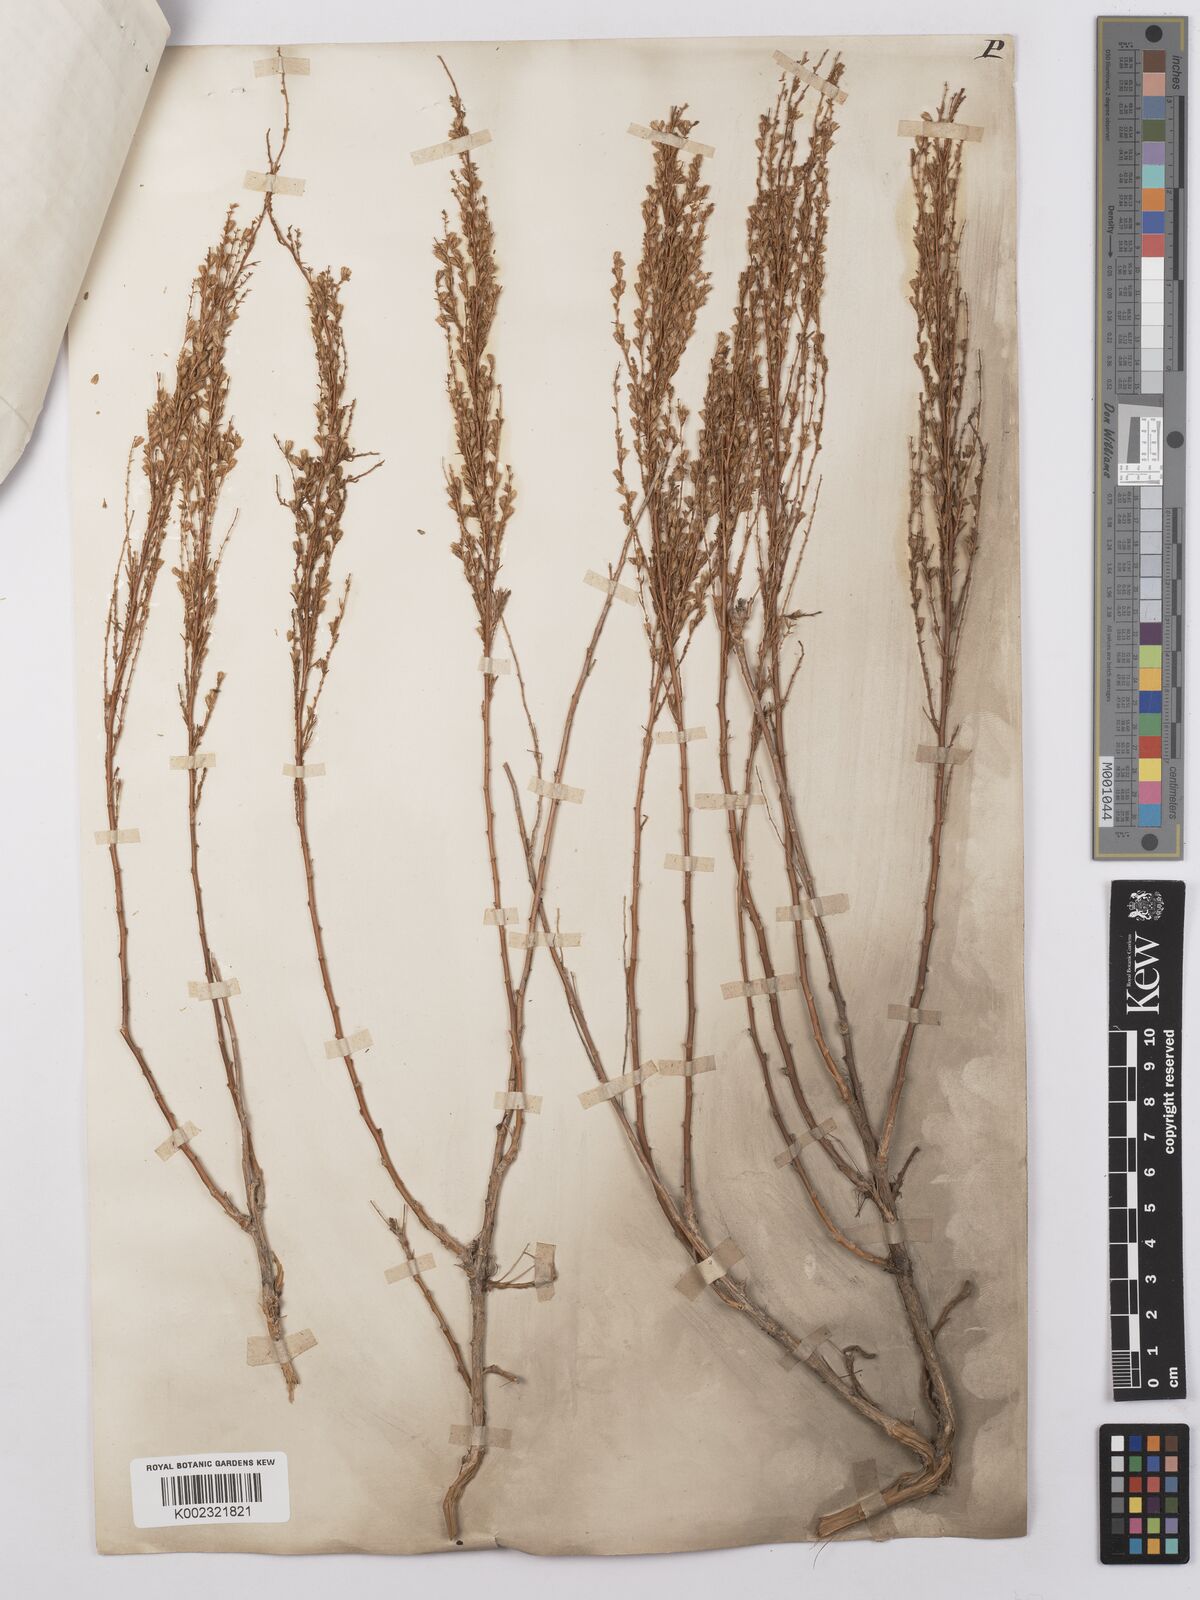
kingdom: Plantae
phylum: Tracheophyta
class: Magnoliopsida
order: Asterales
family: Asteraceae
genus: Artemisia
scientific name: Artemisia cina
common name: Levant wormseed
